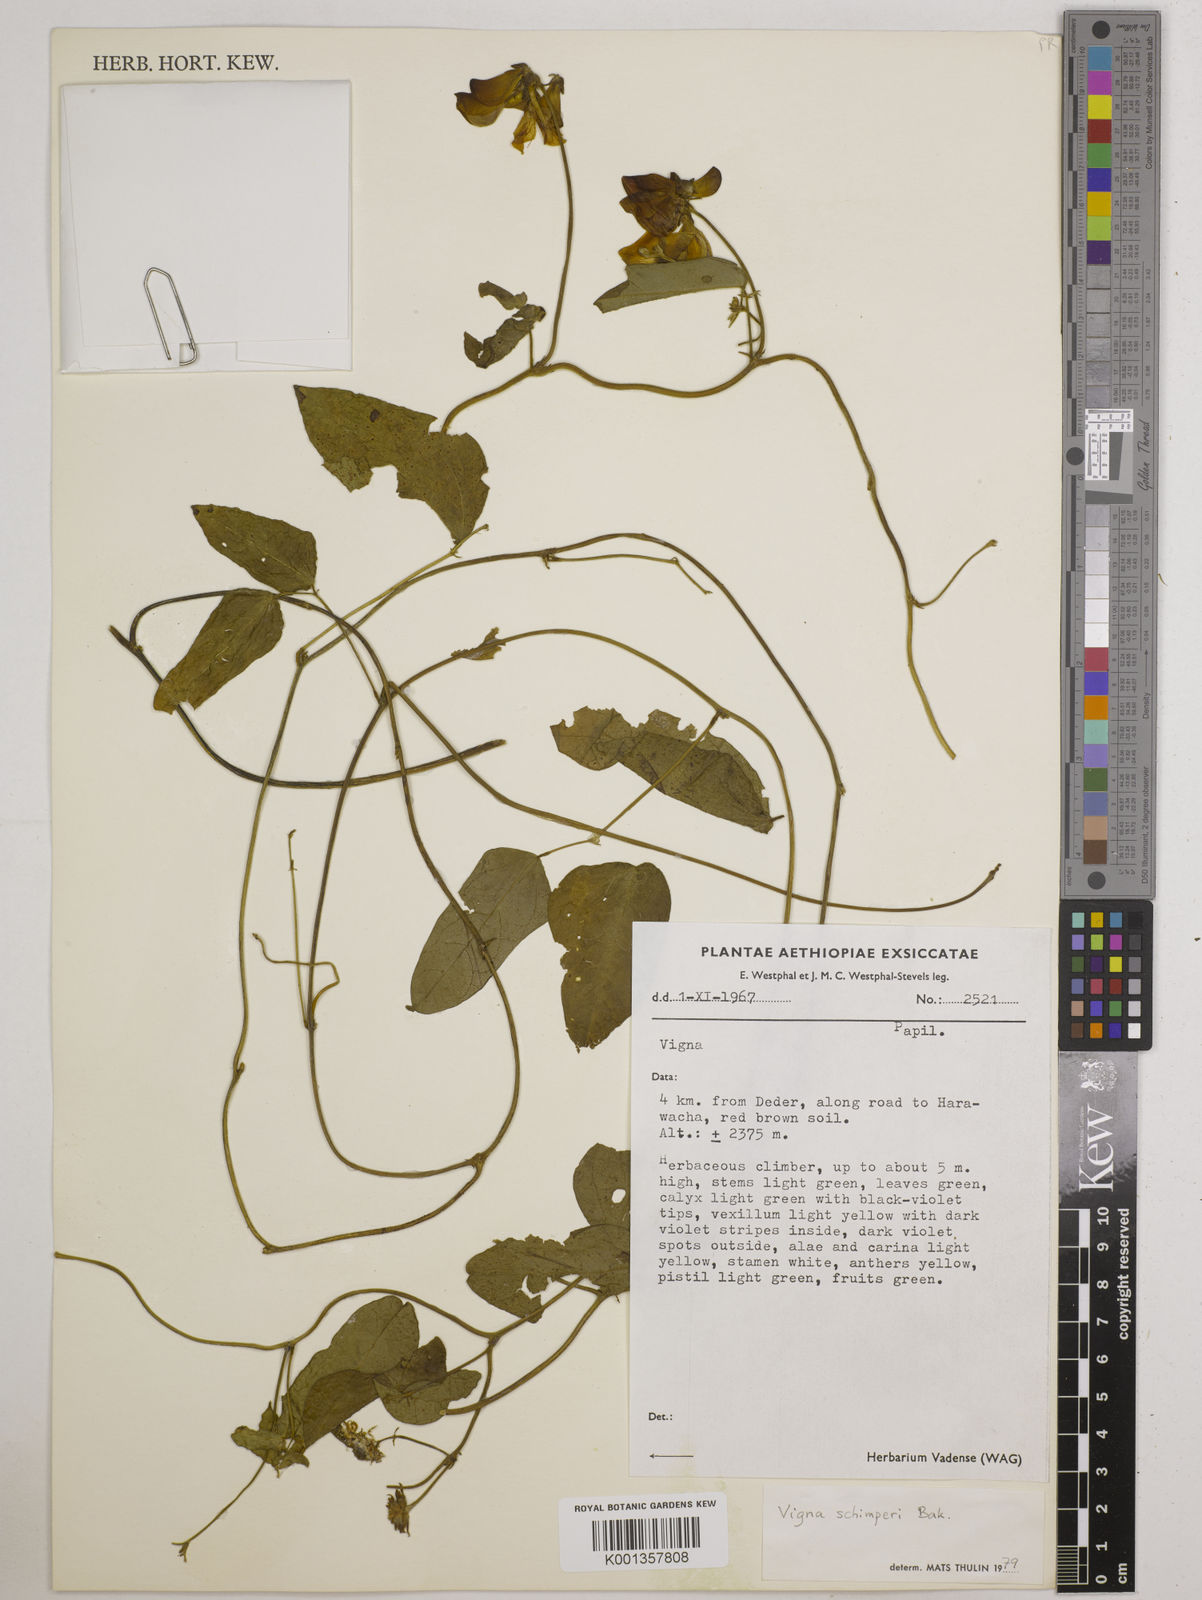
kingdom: Plantae
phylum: Tracheophyta
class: Magnoliopsida
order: Fabales
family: Fabaceae
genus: Vigna
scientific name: Vigna schimperi
